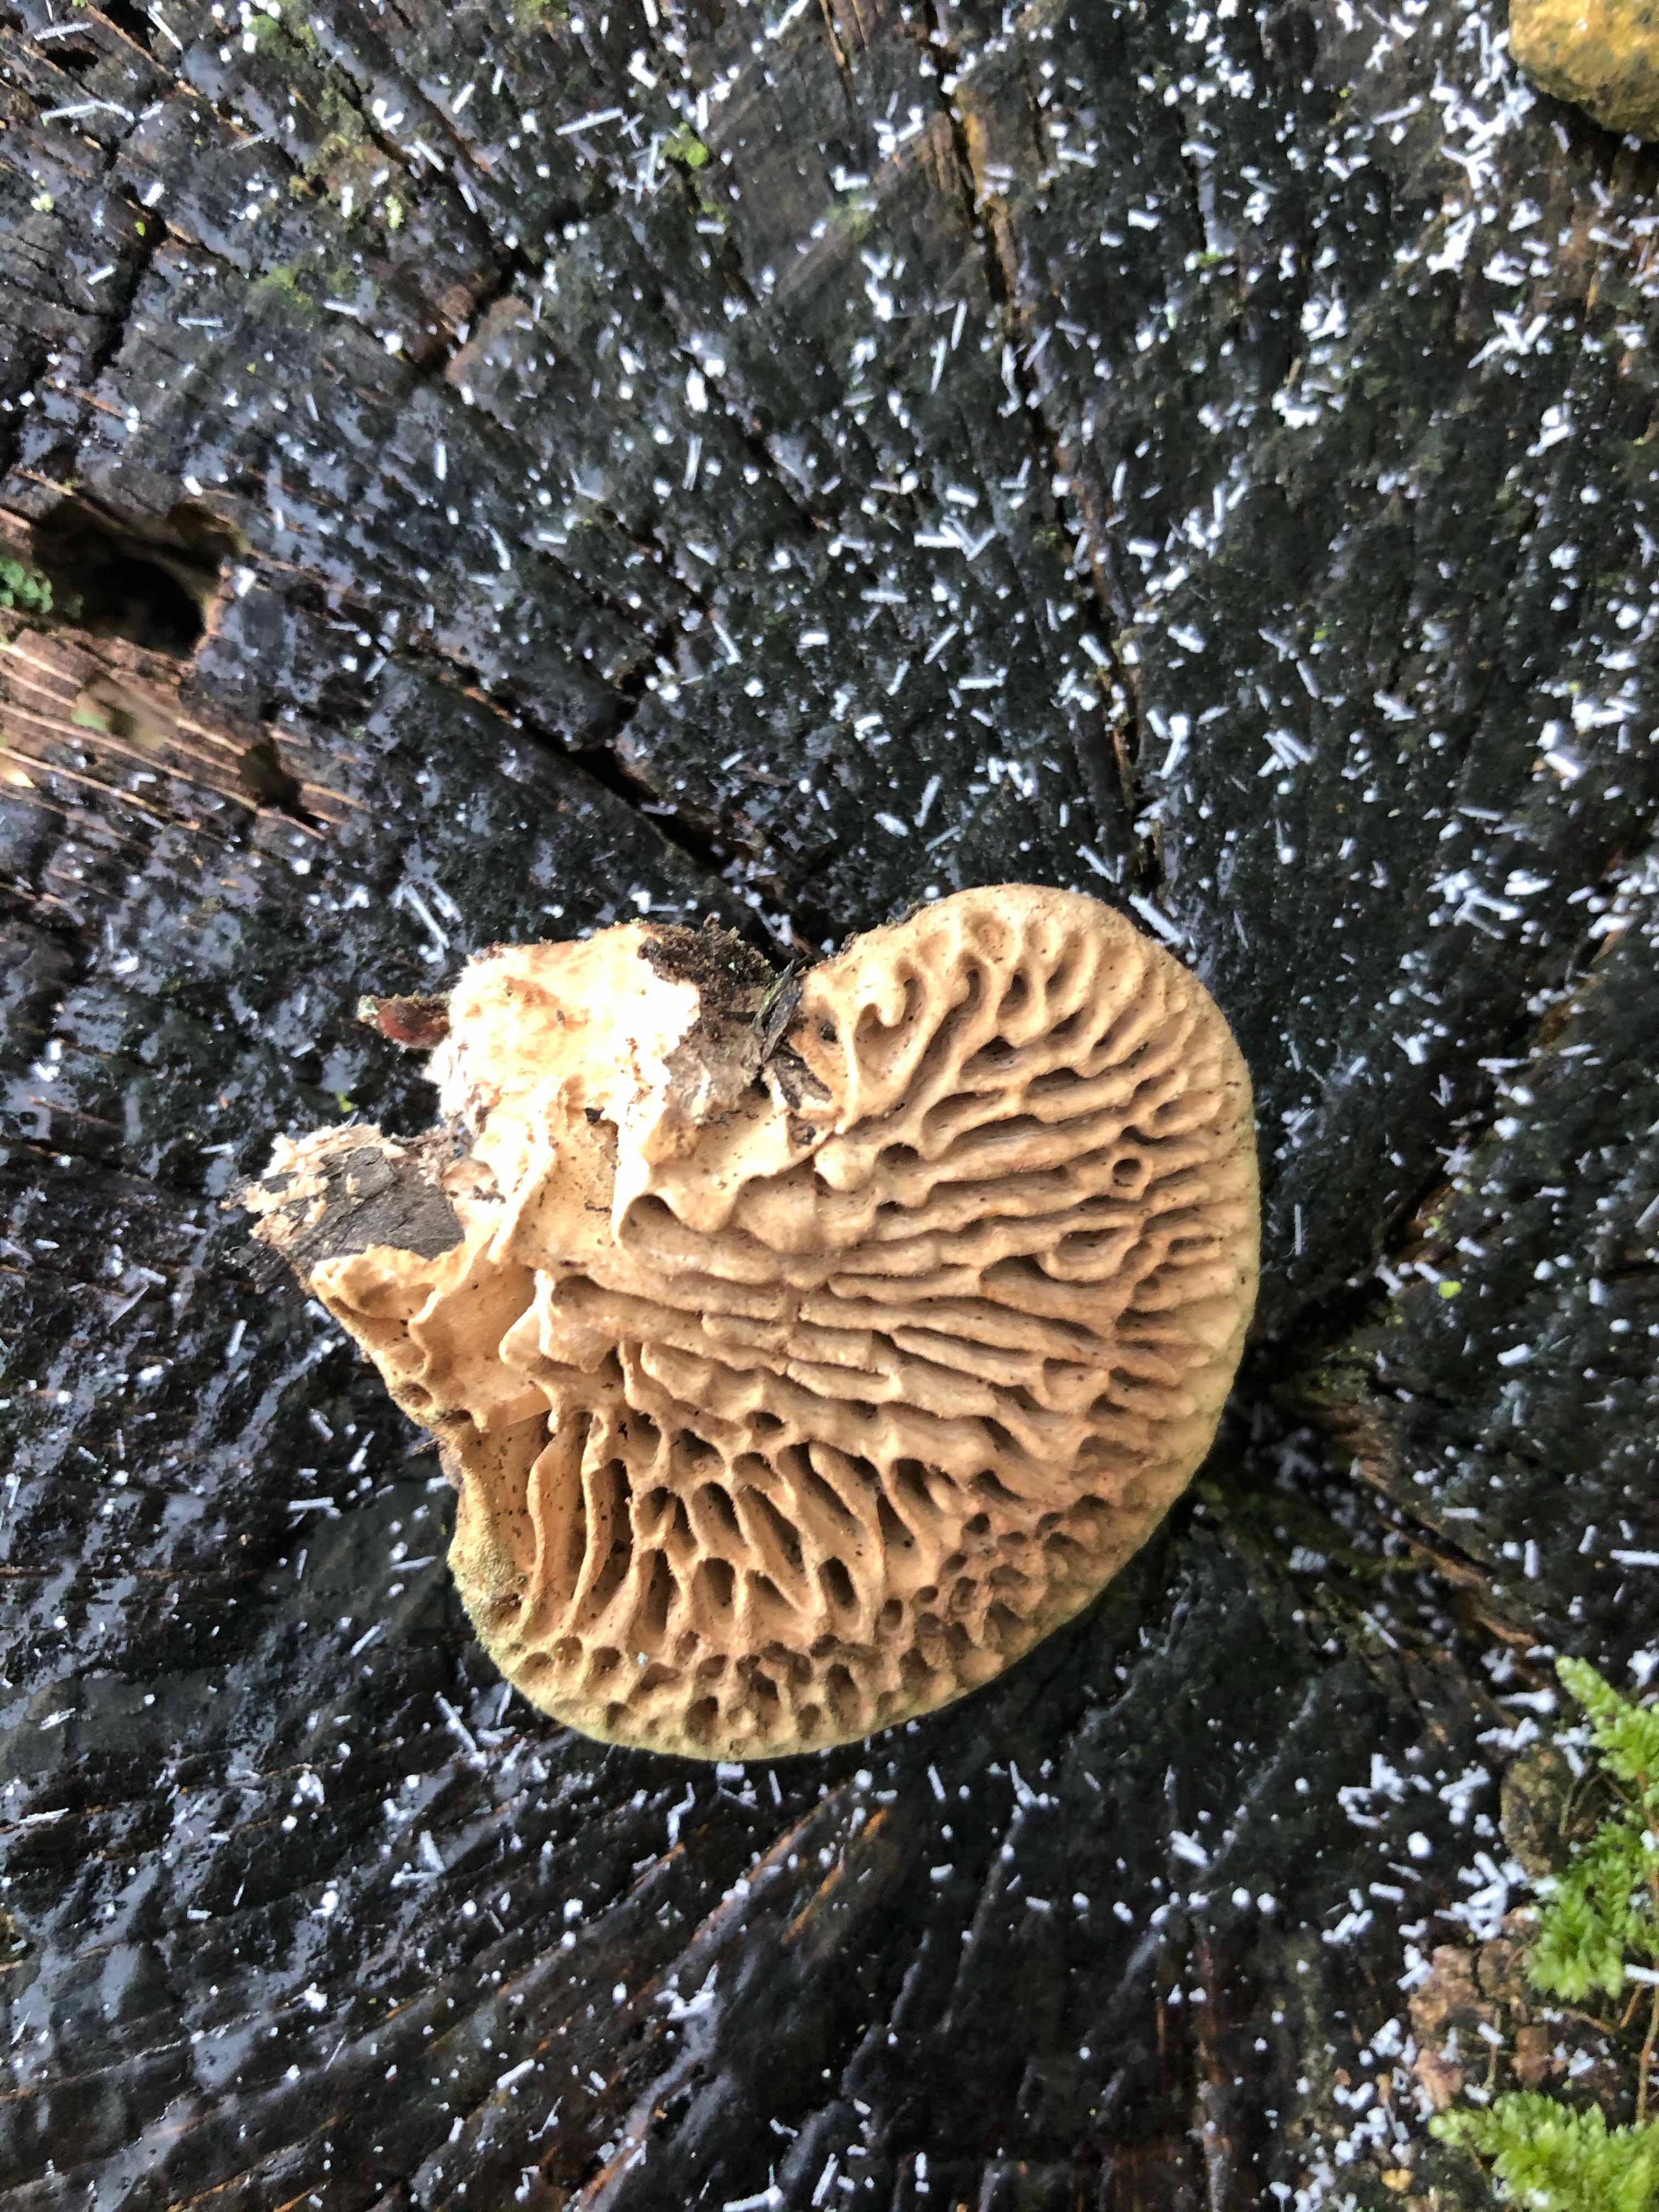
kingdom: Fungi
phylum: Basidiomycota
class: Agaricomycetes
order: Polyporales
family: Fomitopsidaceae
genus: Daedalea
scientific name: Daedalea quercina
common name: ege-labyrintsvamp
